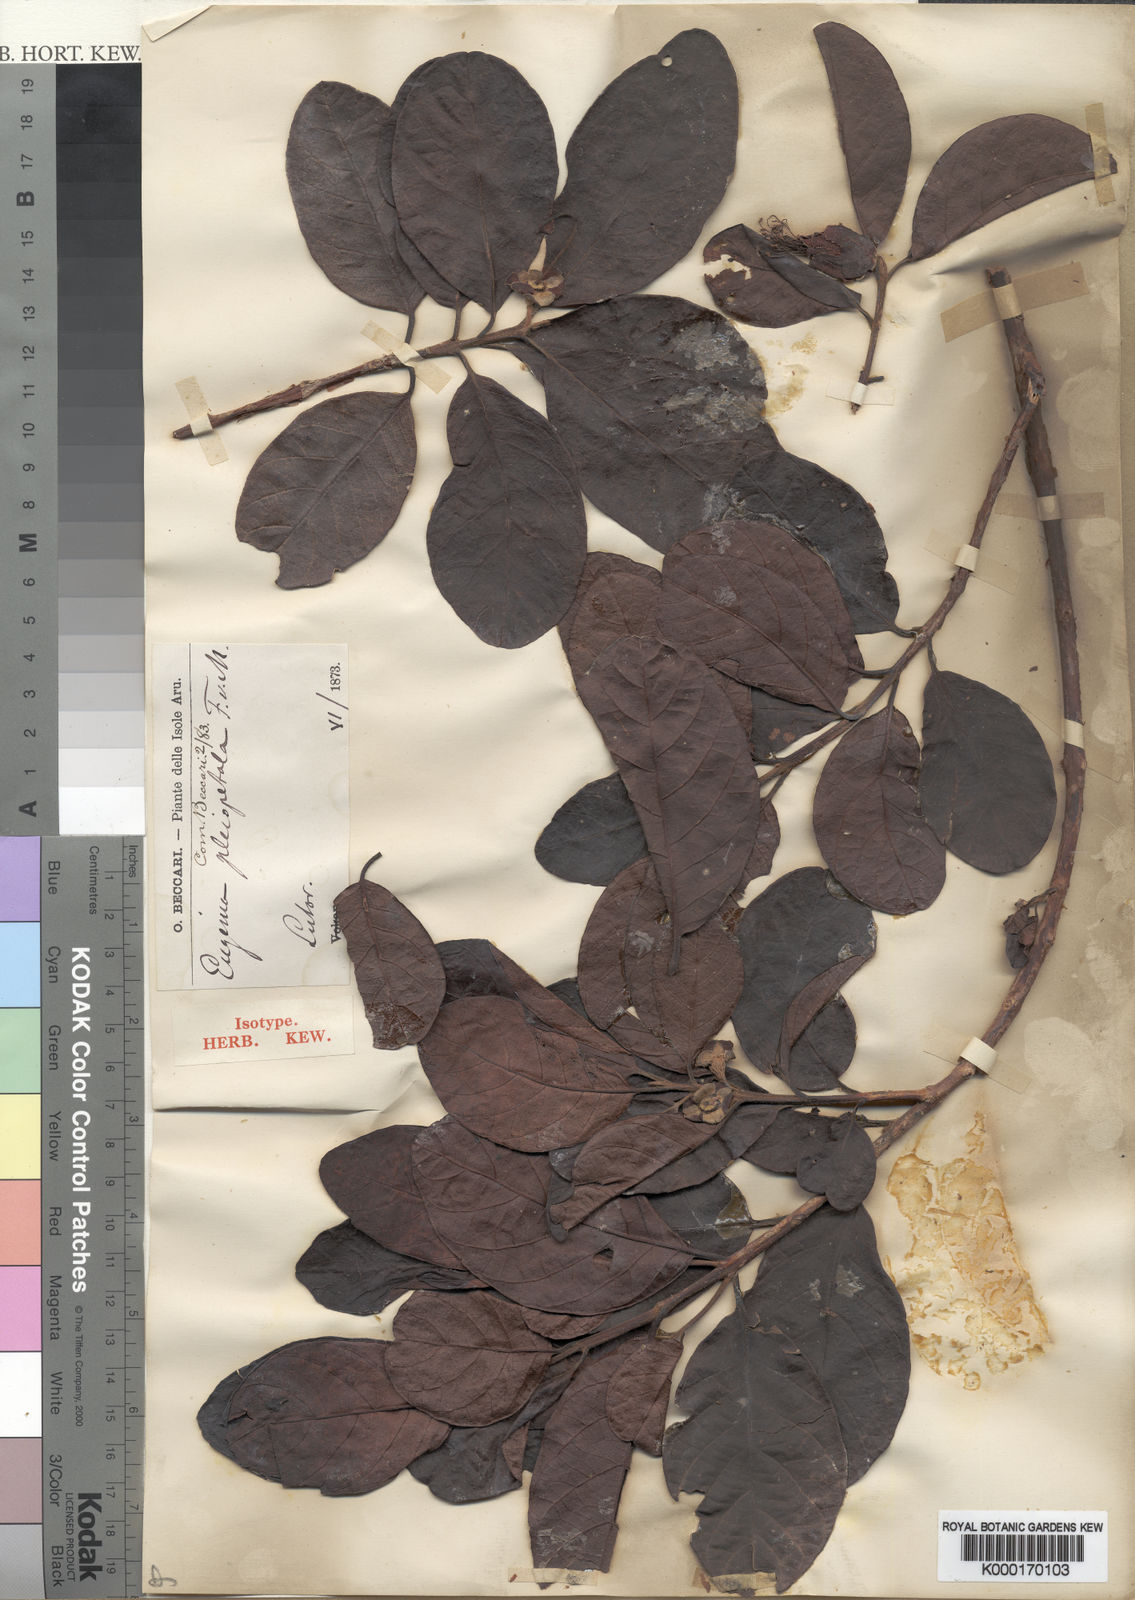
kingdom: Plantae
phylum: Tracheophyta
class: Magnoliopsida
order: Myrtales
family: Myrtaceae
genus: Octamyrtus
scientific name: Octamyrtus pleiopetala
